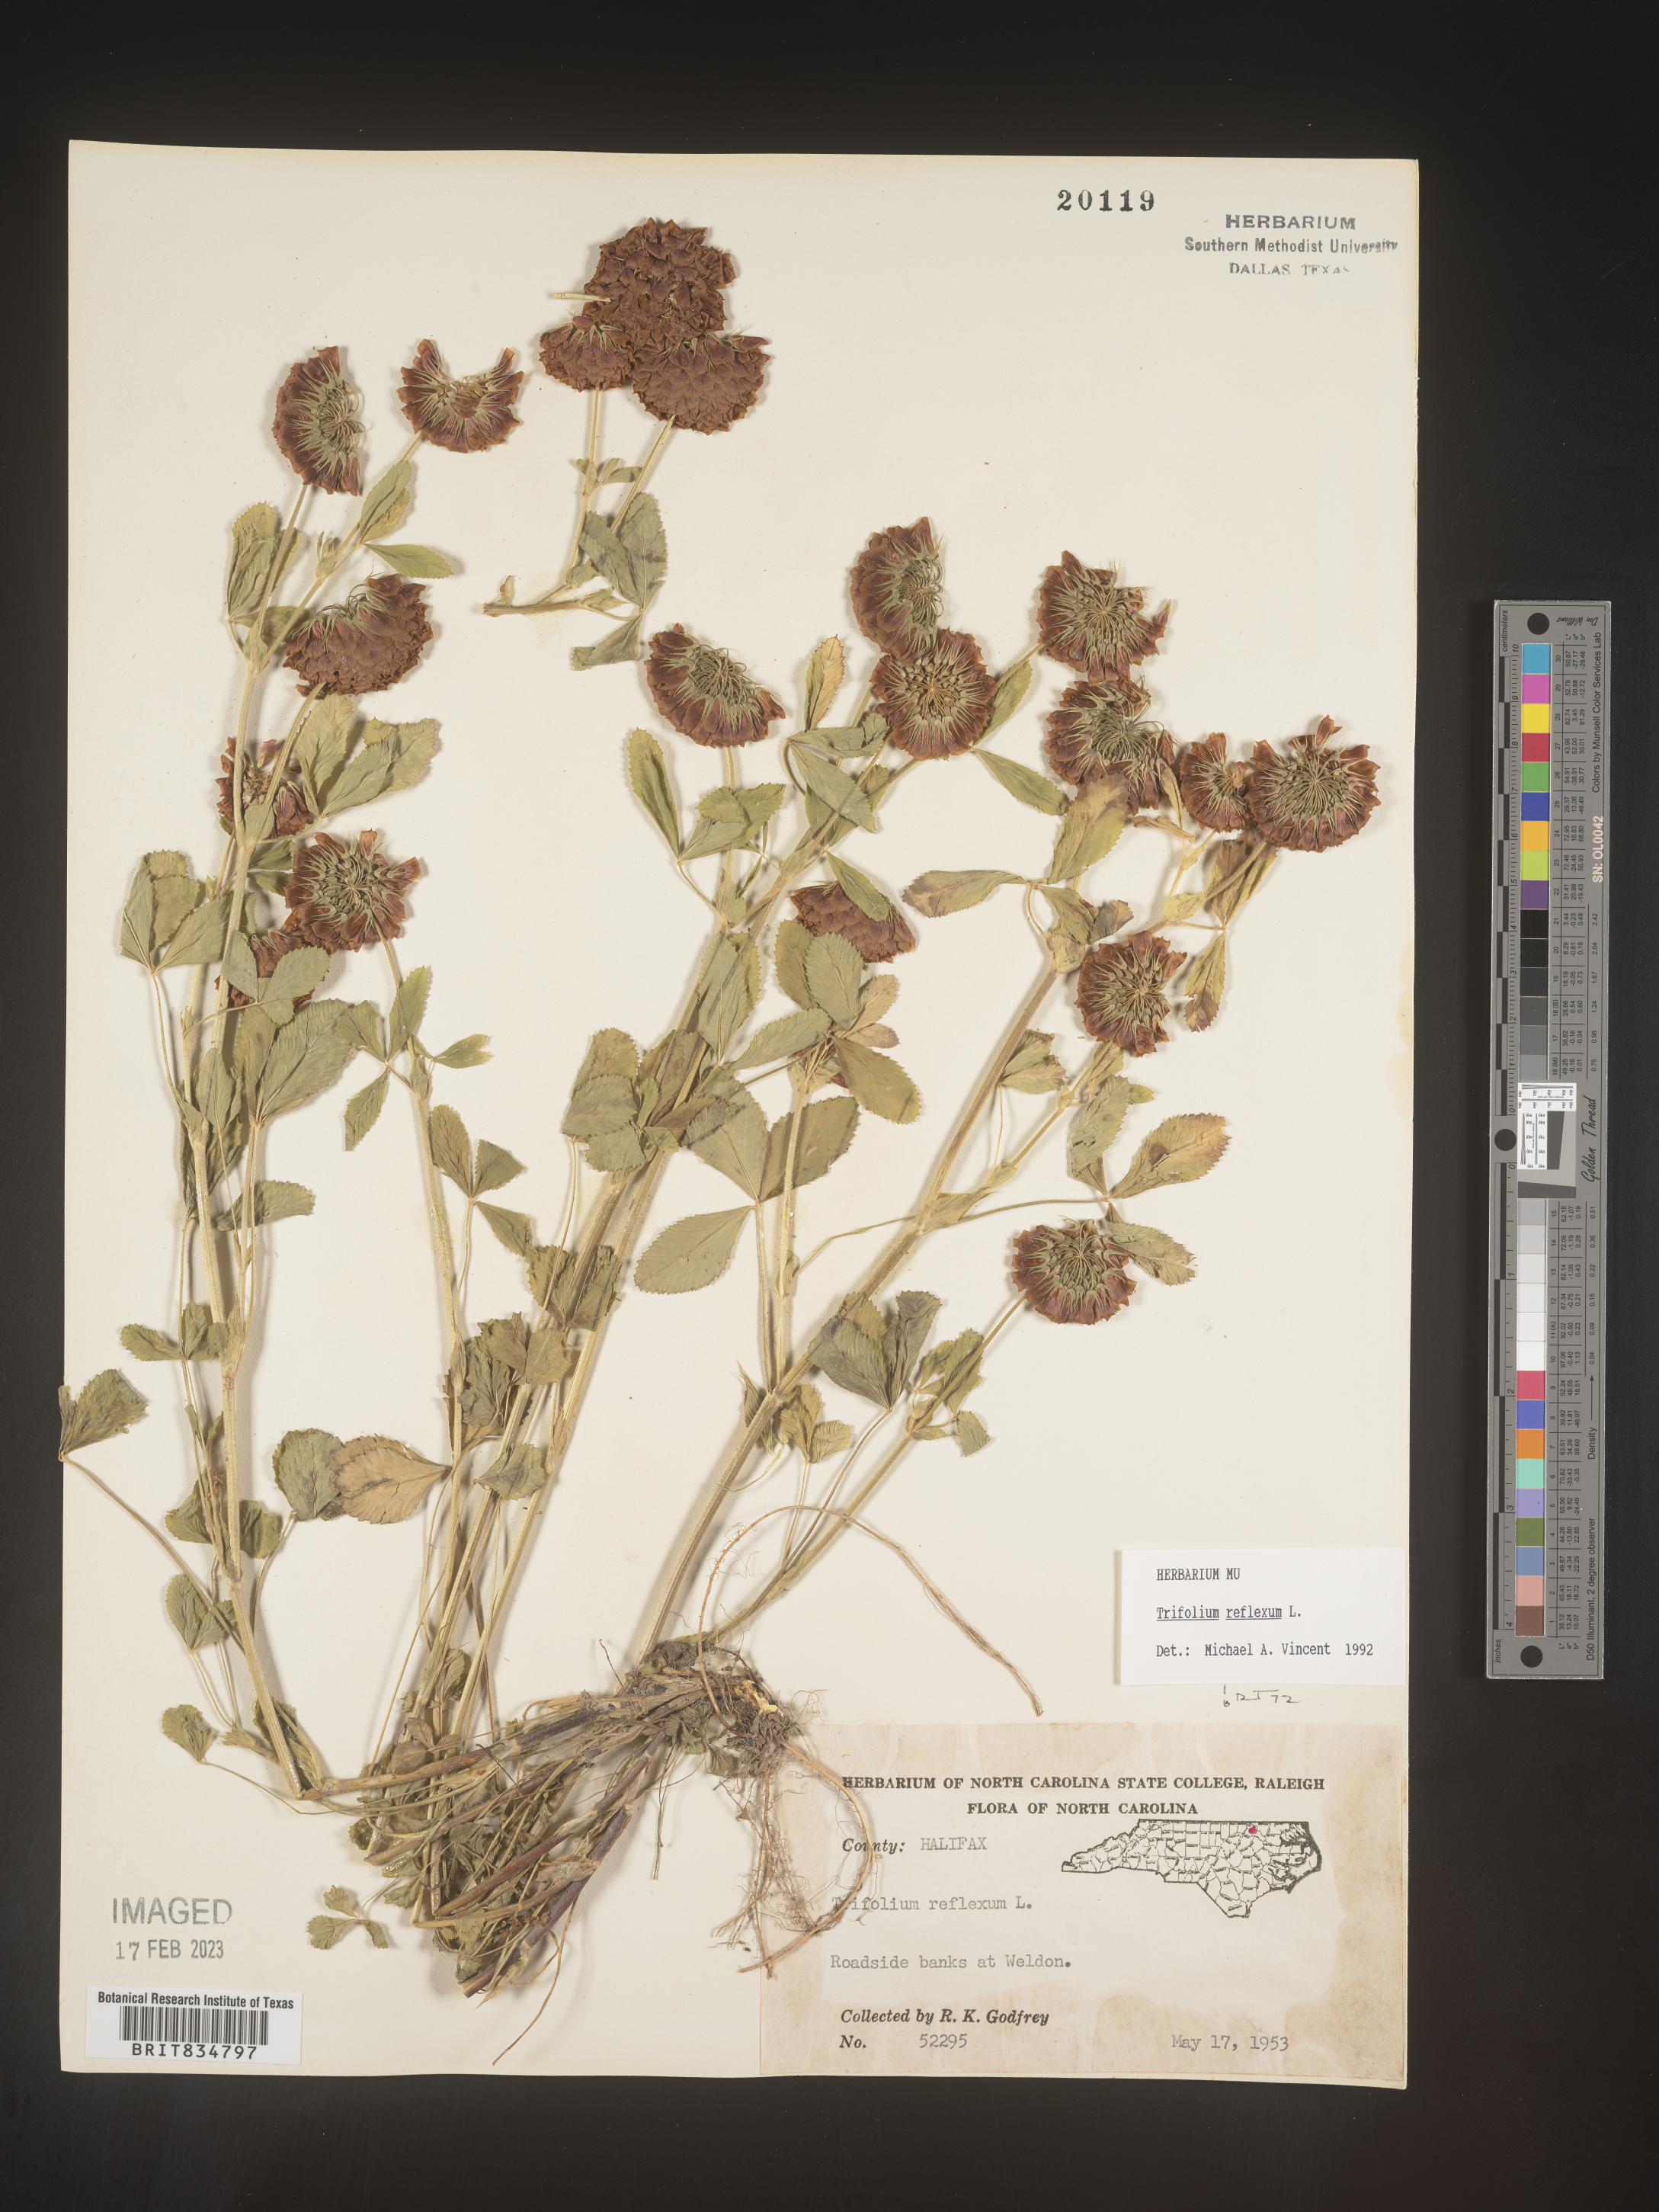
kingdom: Plantae
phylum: Tracheophyta
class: Magnoliopsida
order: Fabales
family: Fabaceae
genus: Trifolium
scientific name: Trifolium reflexum
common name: Buffalo clover
